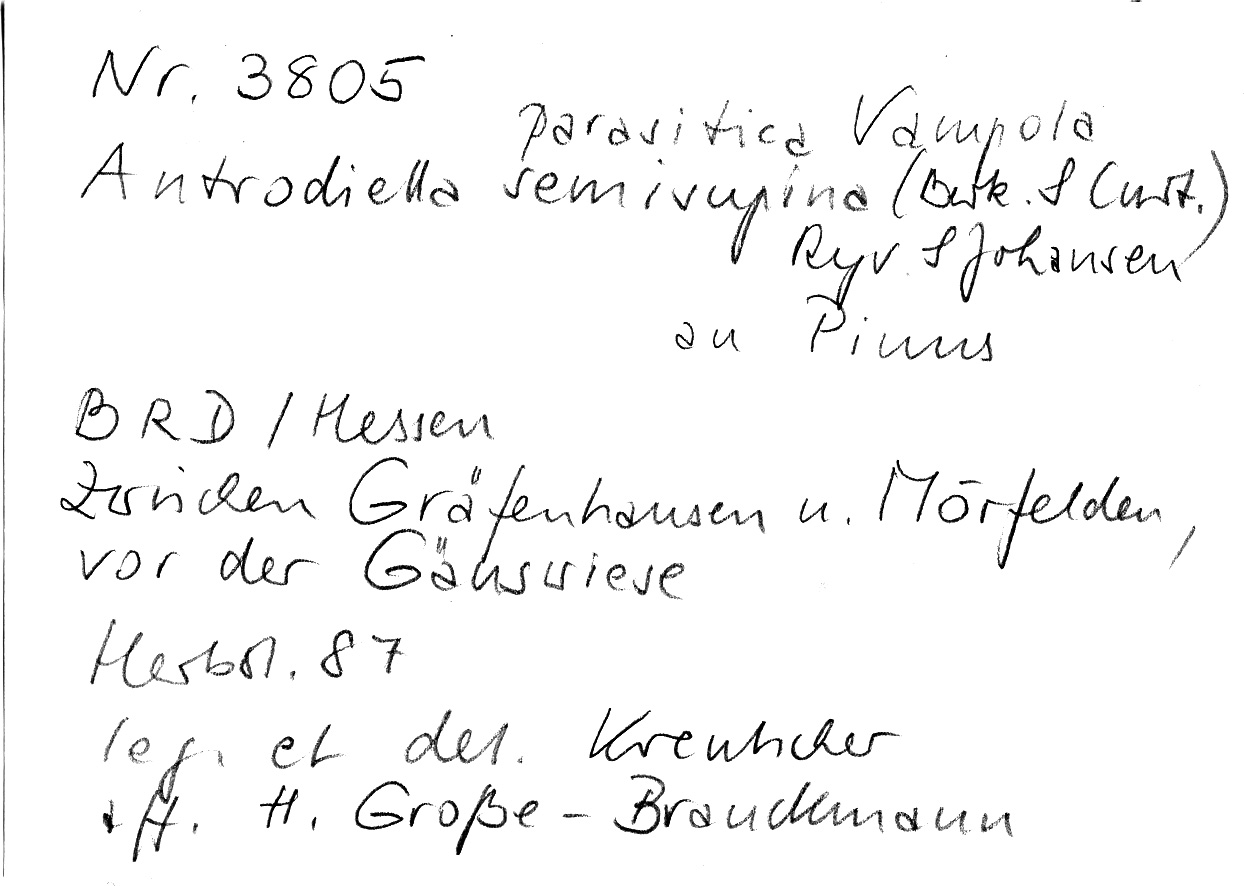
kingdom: Fungi
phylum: Basidiomycota
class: Agaricomycetes
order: Polyporales
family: Steccherinaceae
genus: Antrodiella
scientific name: Antrodiella parasitica
